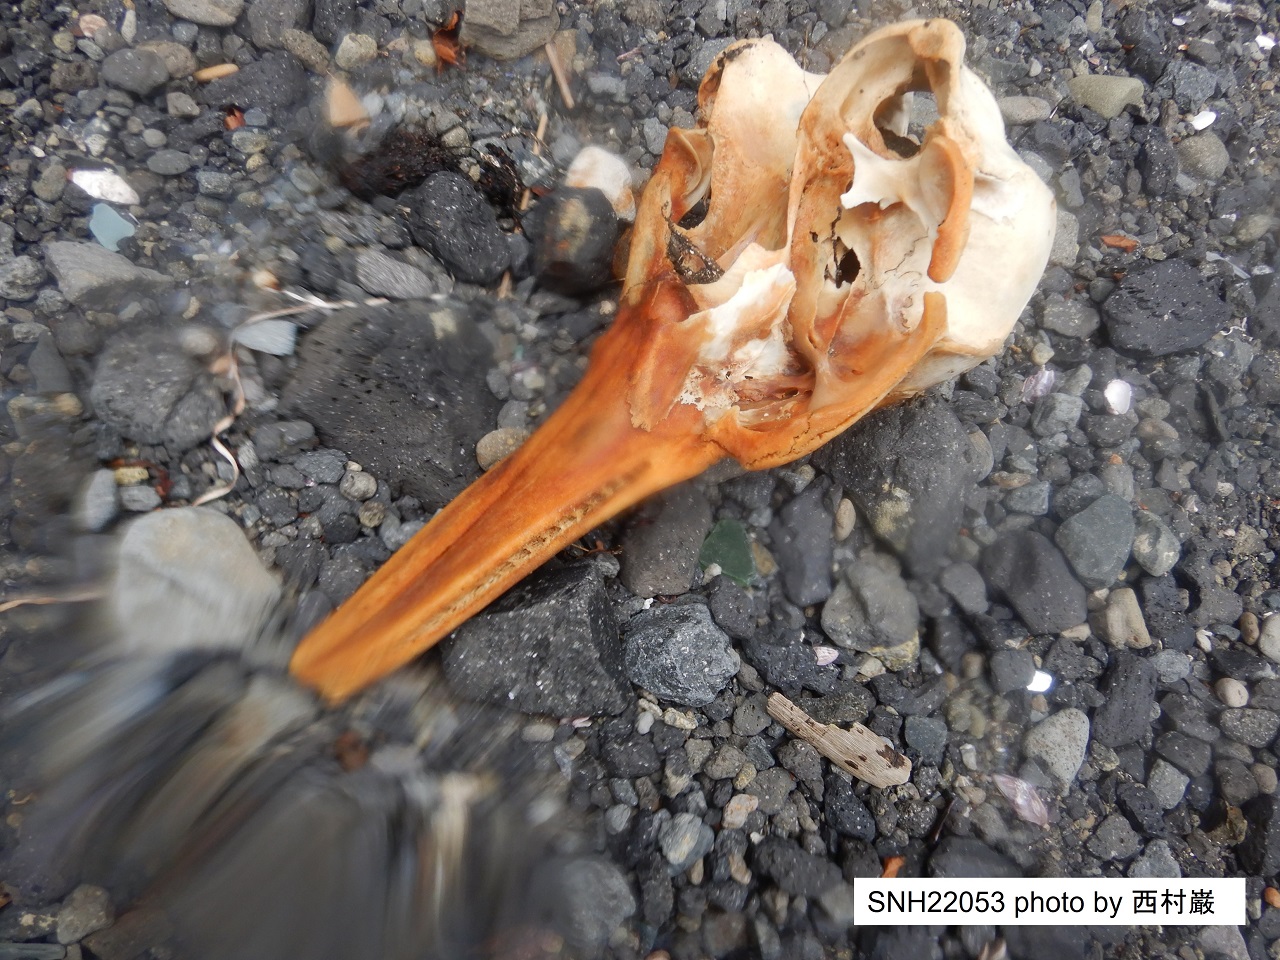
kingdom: Animalia
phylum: Chordata
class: Mammalia
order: Cetacea
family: Delphinidae
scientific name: Delphinidae
